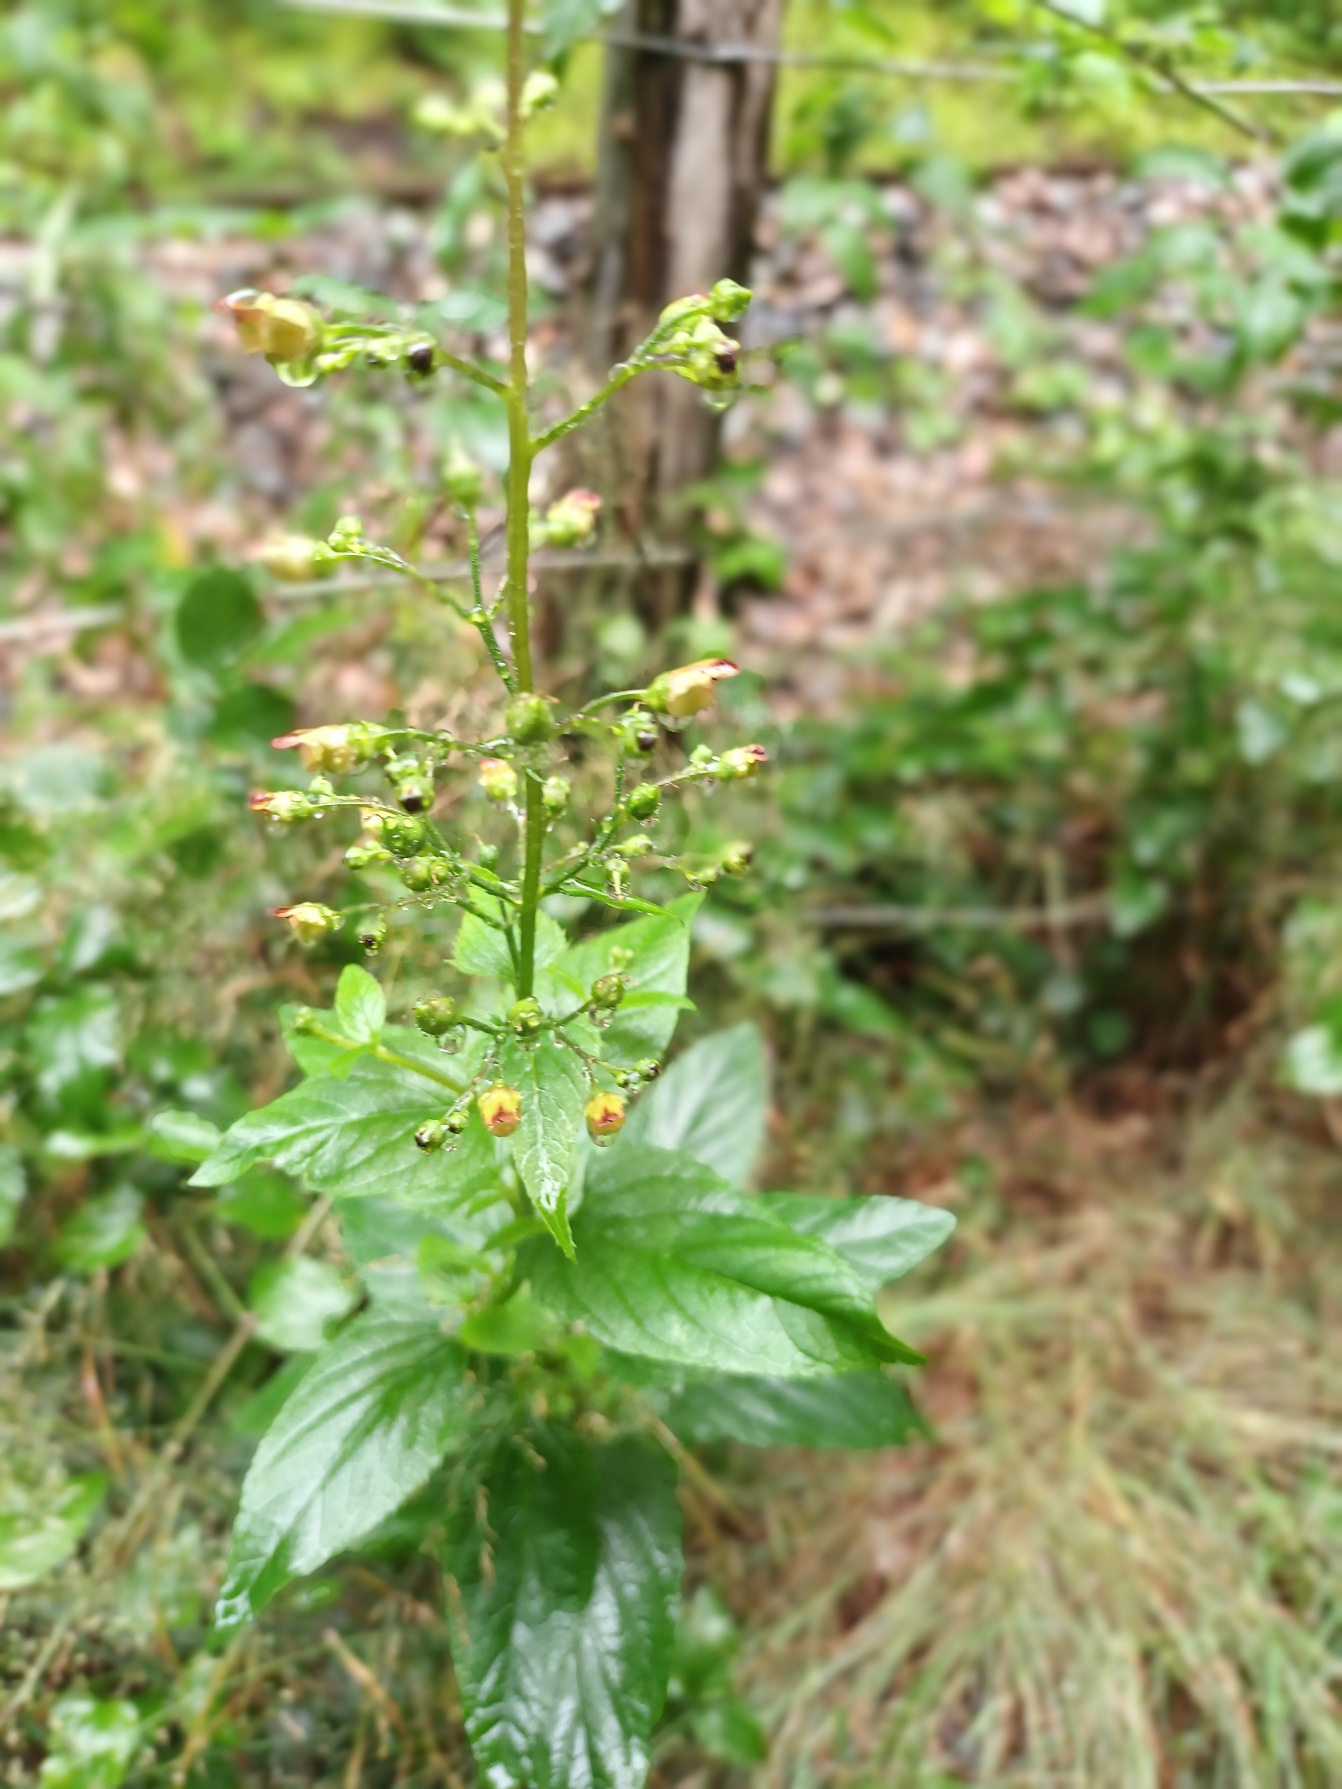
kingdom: Plantae
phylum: Tracheophyta
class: Magnoliopsida
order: Lamiales
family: Scrophulariaceae
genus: Scrophularia
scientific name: Scrophularia nodosa
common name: Knoldet brunrod
